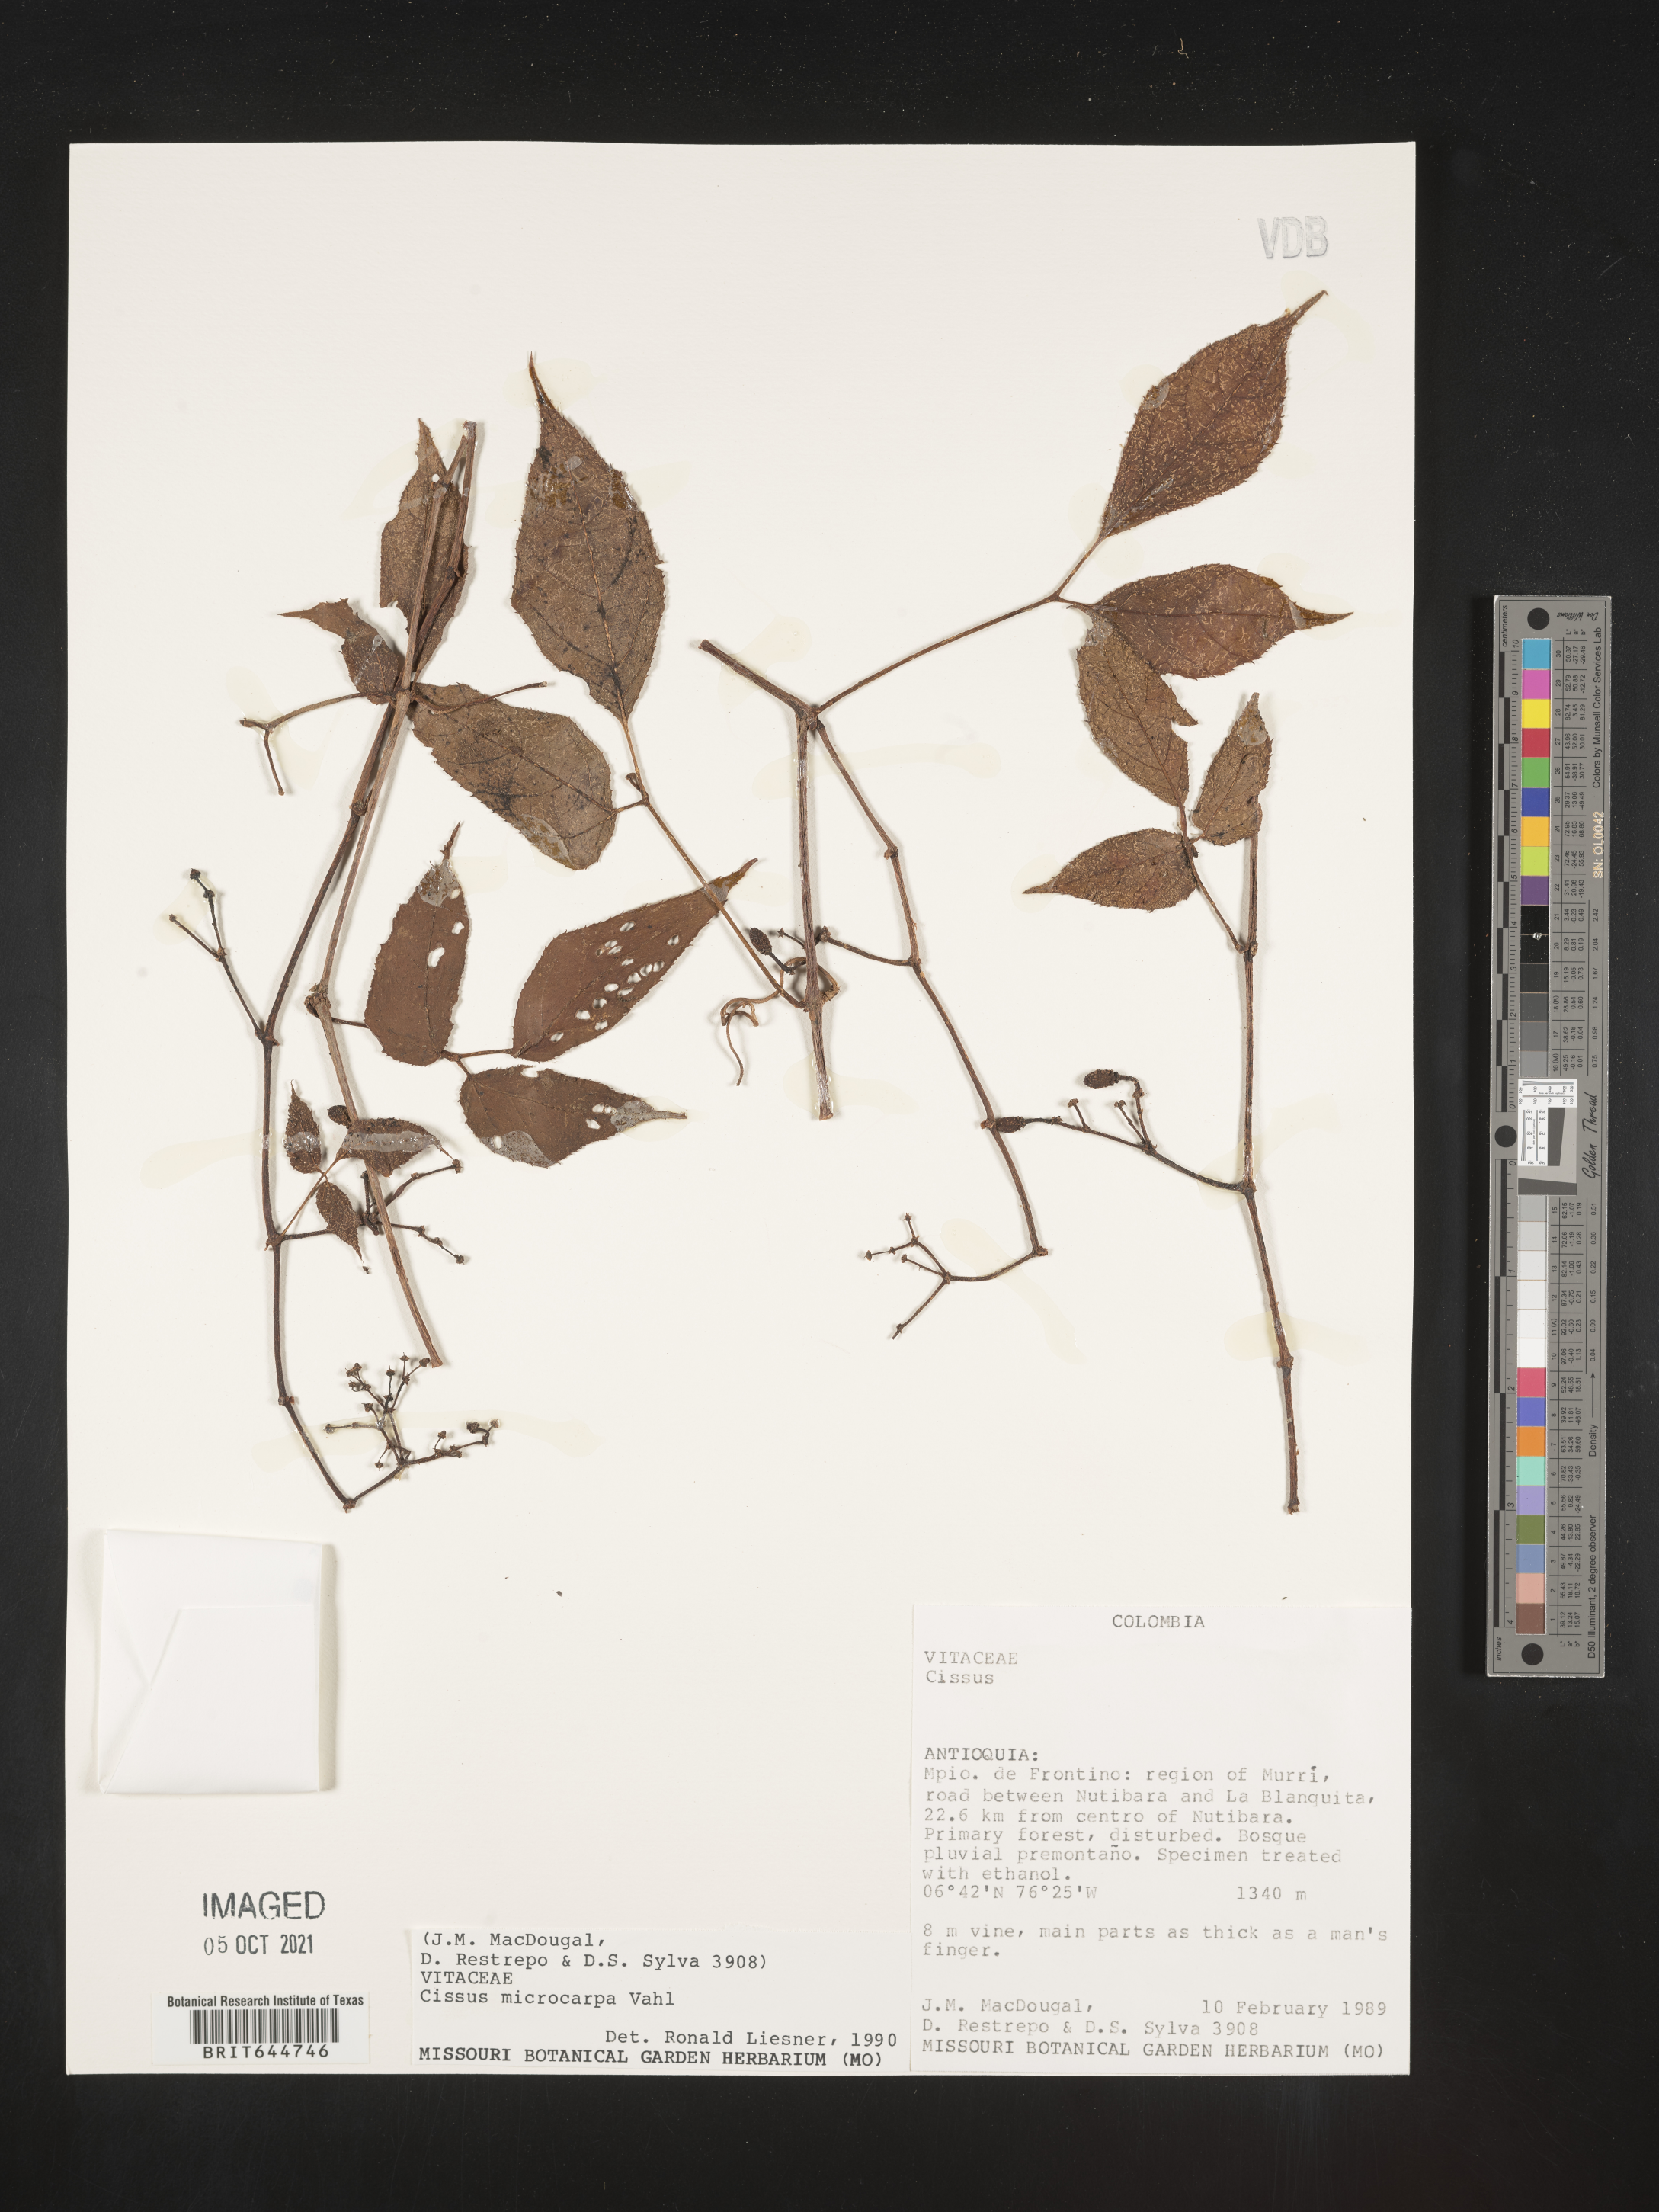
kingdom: Plantae
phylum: Tracheophyta
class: Magnoliopsida
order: Vitales
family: Vitaceae
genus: Cissus
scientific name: Cissus
